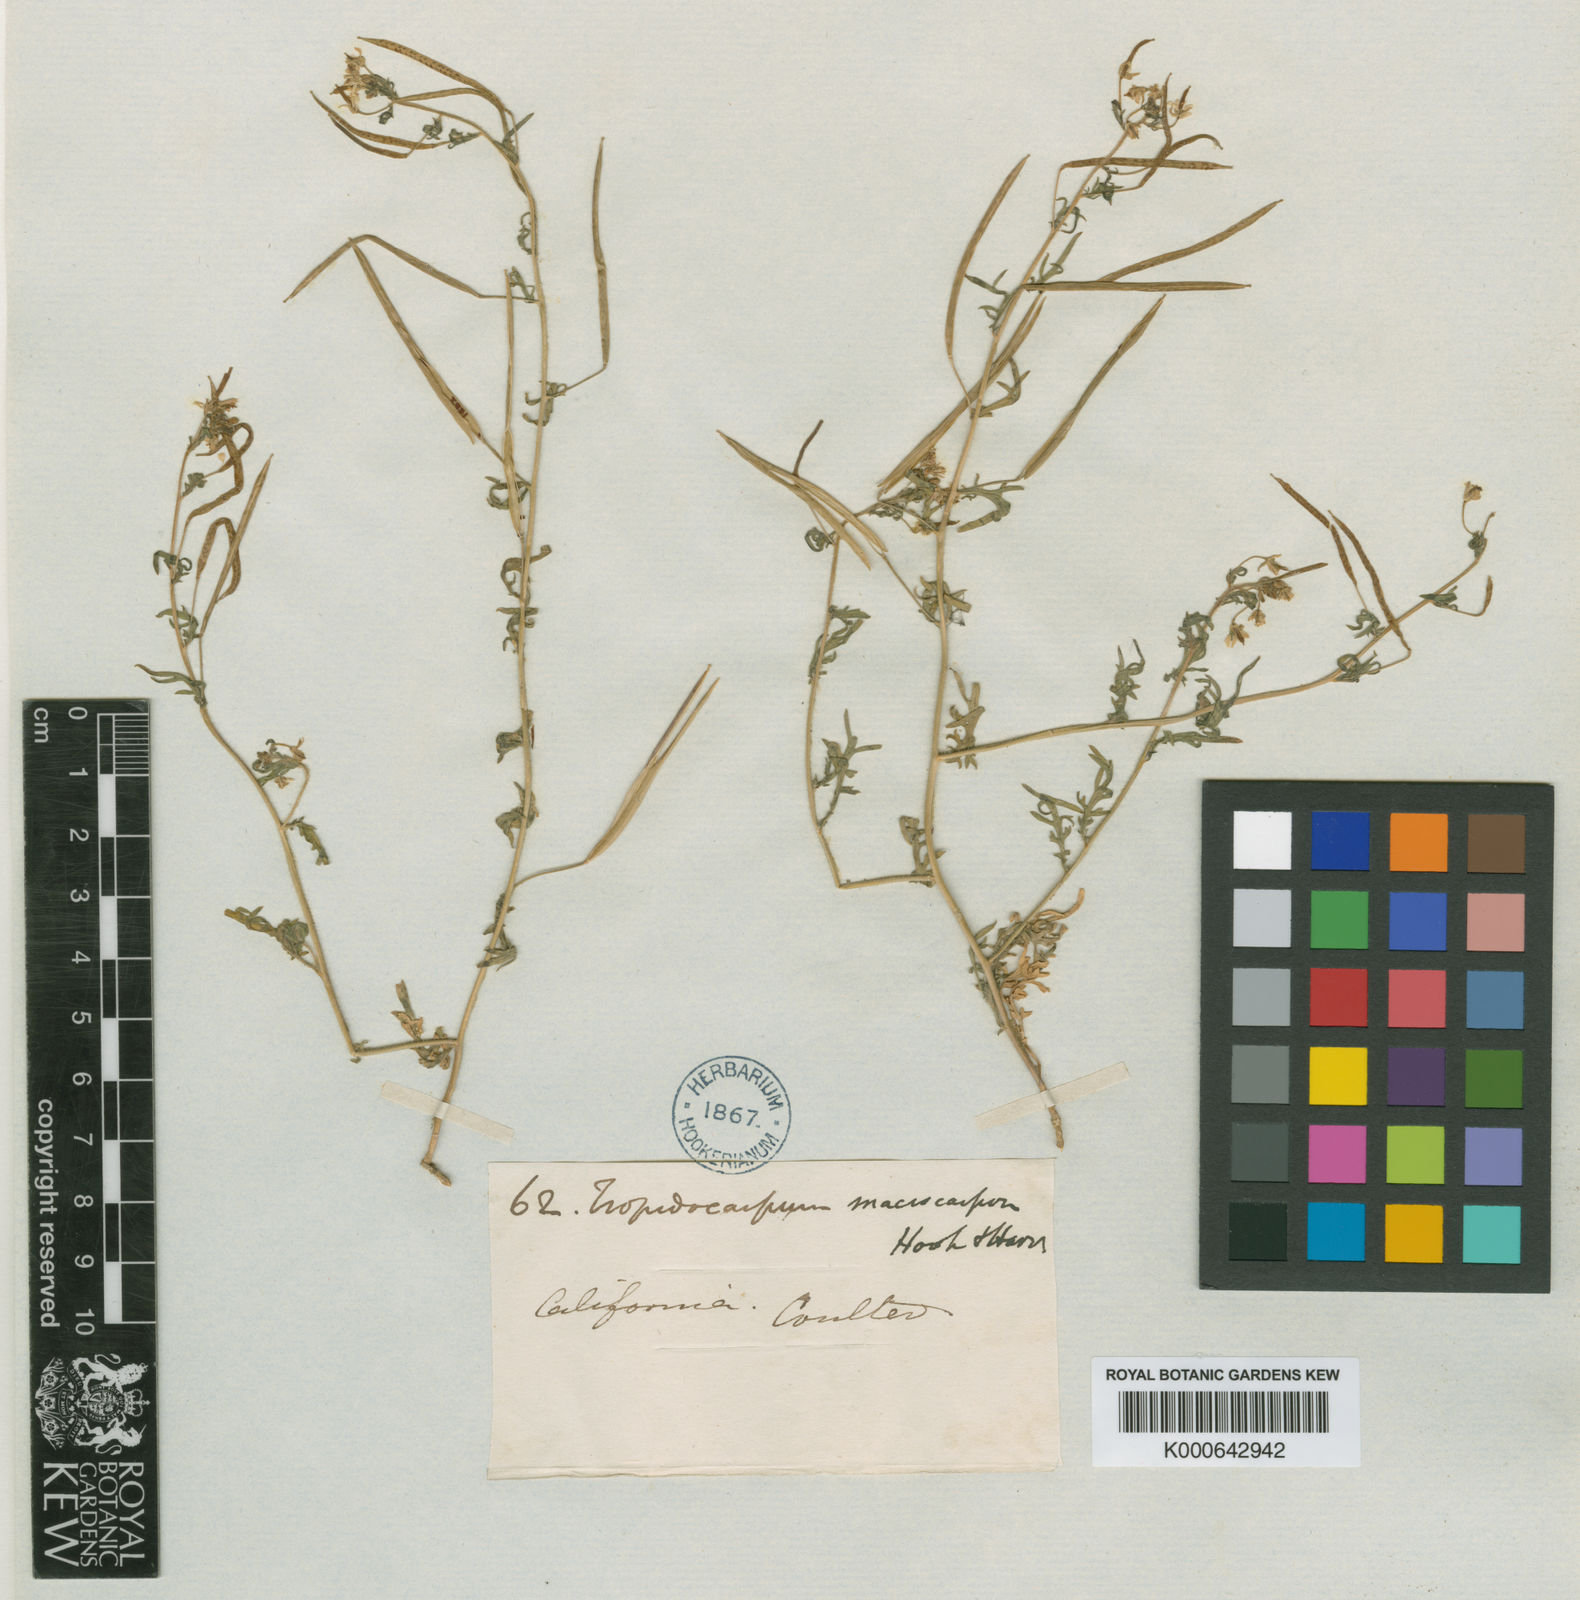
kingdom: Plantae
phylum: Tracheophyta
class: Magnoliopsida
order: Brassicales
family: Brassicaceae
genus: Tropidocarpum
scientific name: Tropidocarpum gracile
